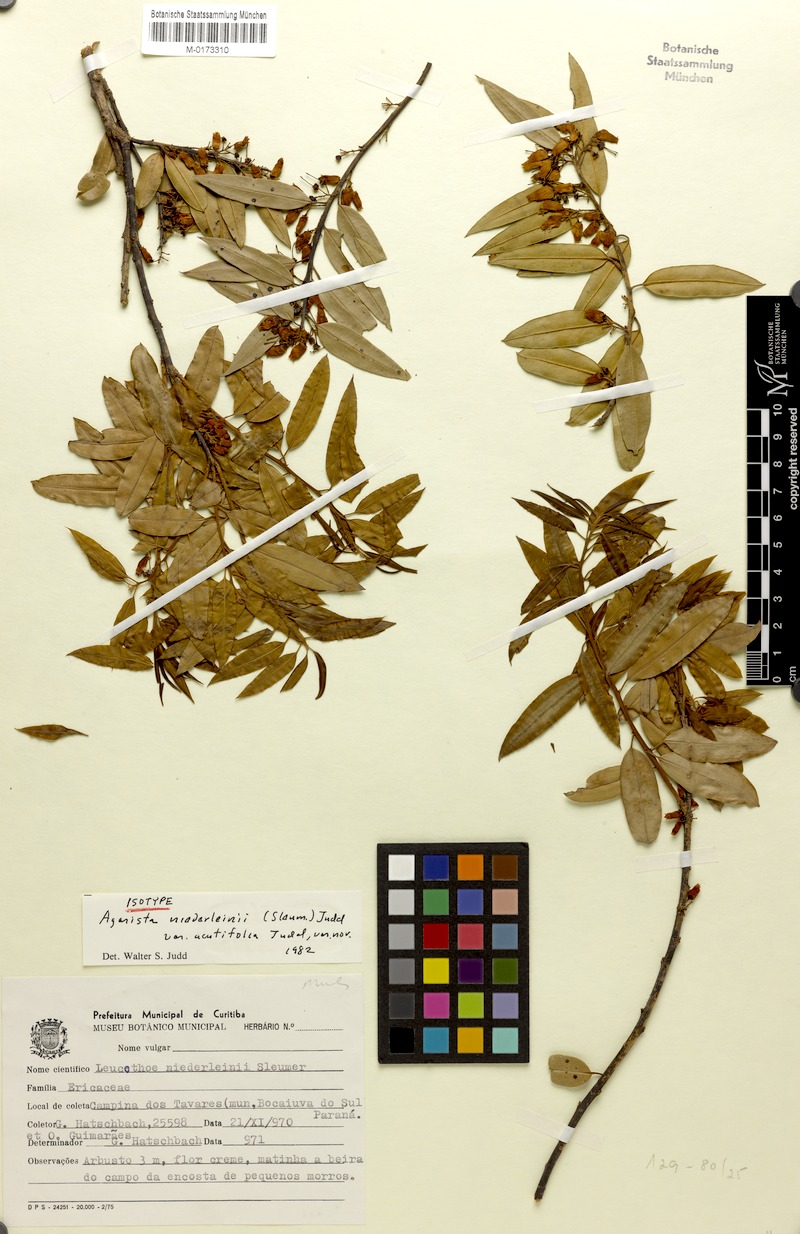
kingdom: Plantae
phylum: Tracheophyta
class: Magnoliopsida
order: Ericales
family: Ericaceae
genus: Agarista
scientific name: Agarista niederleinii
